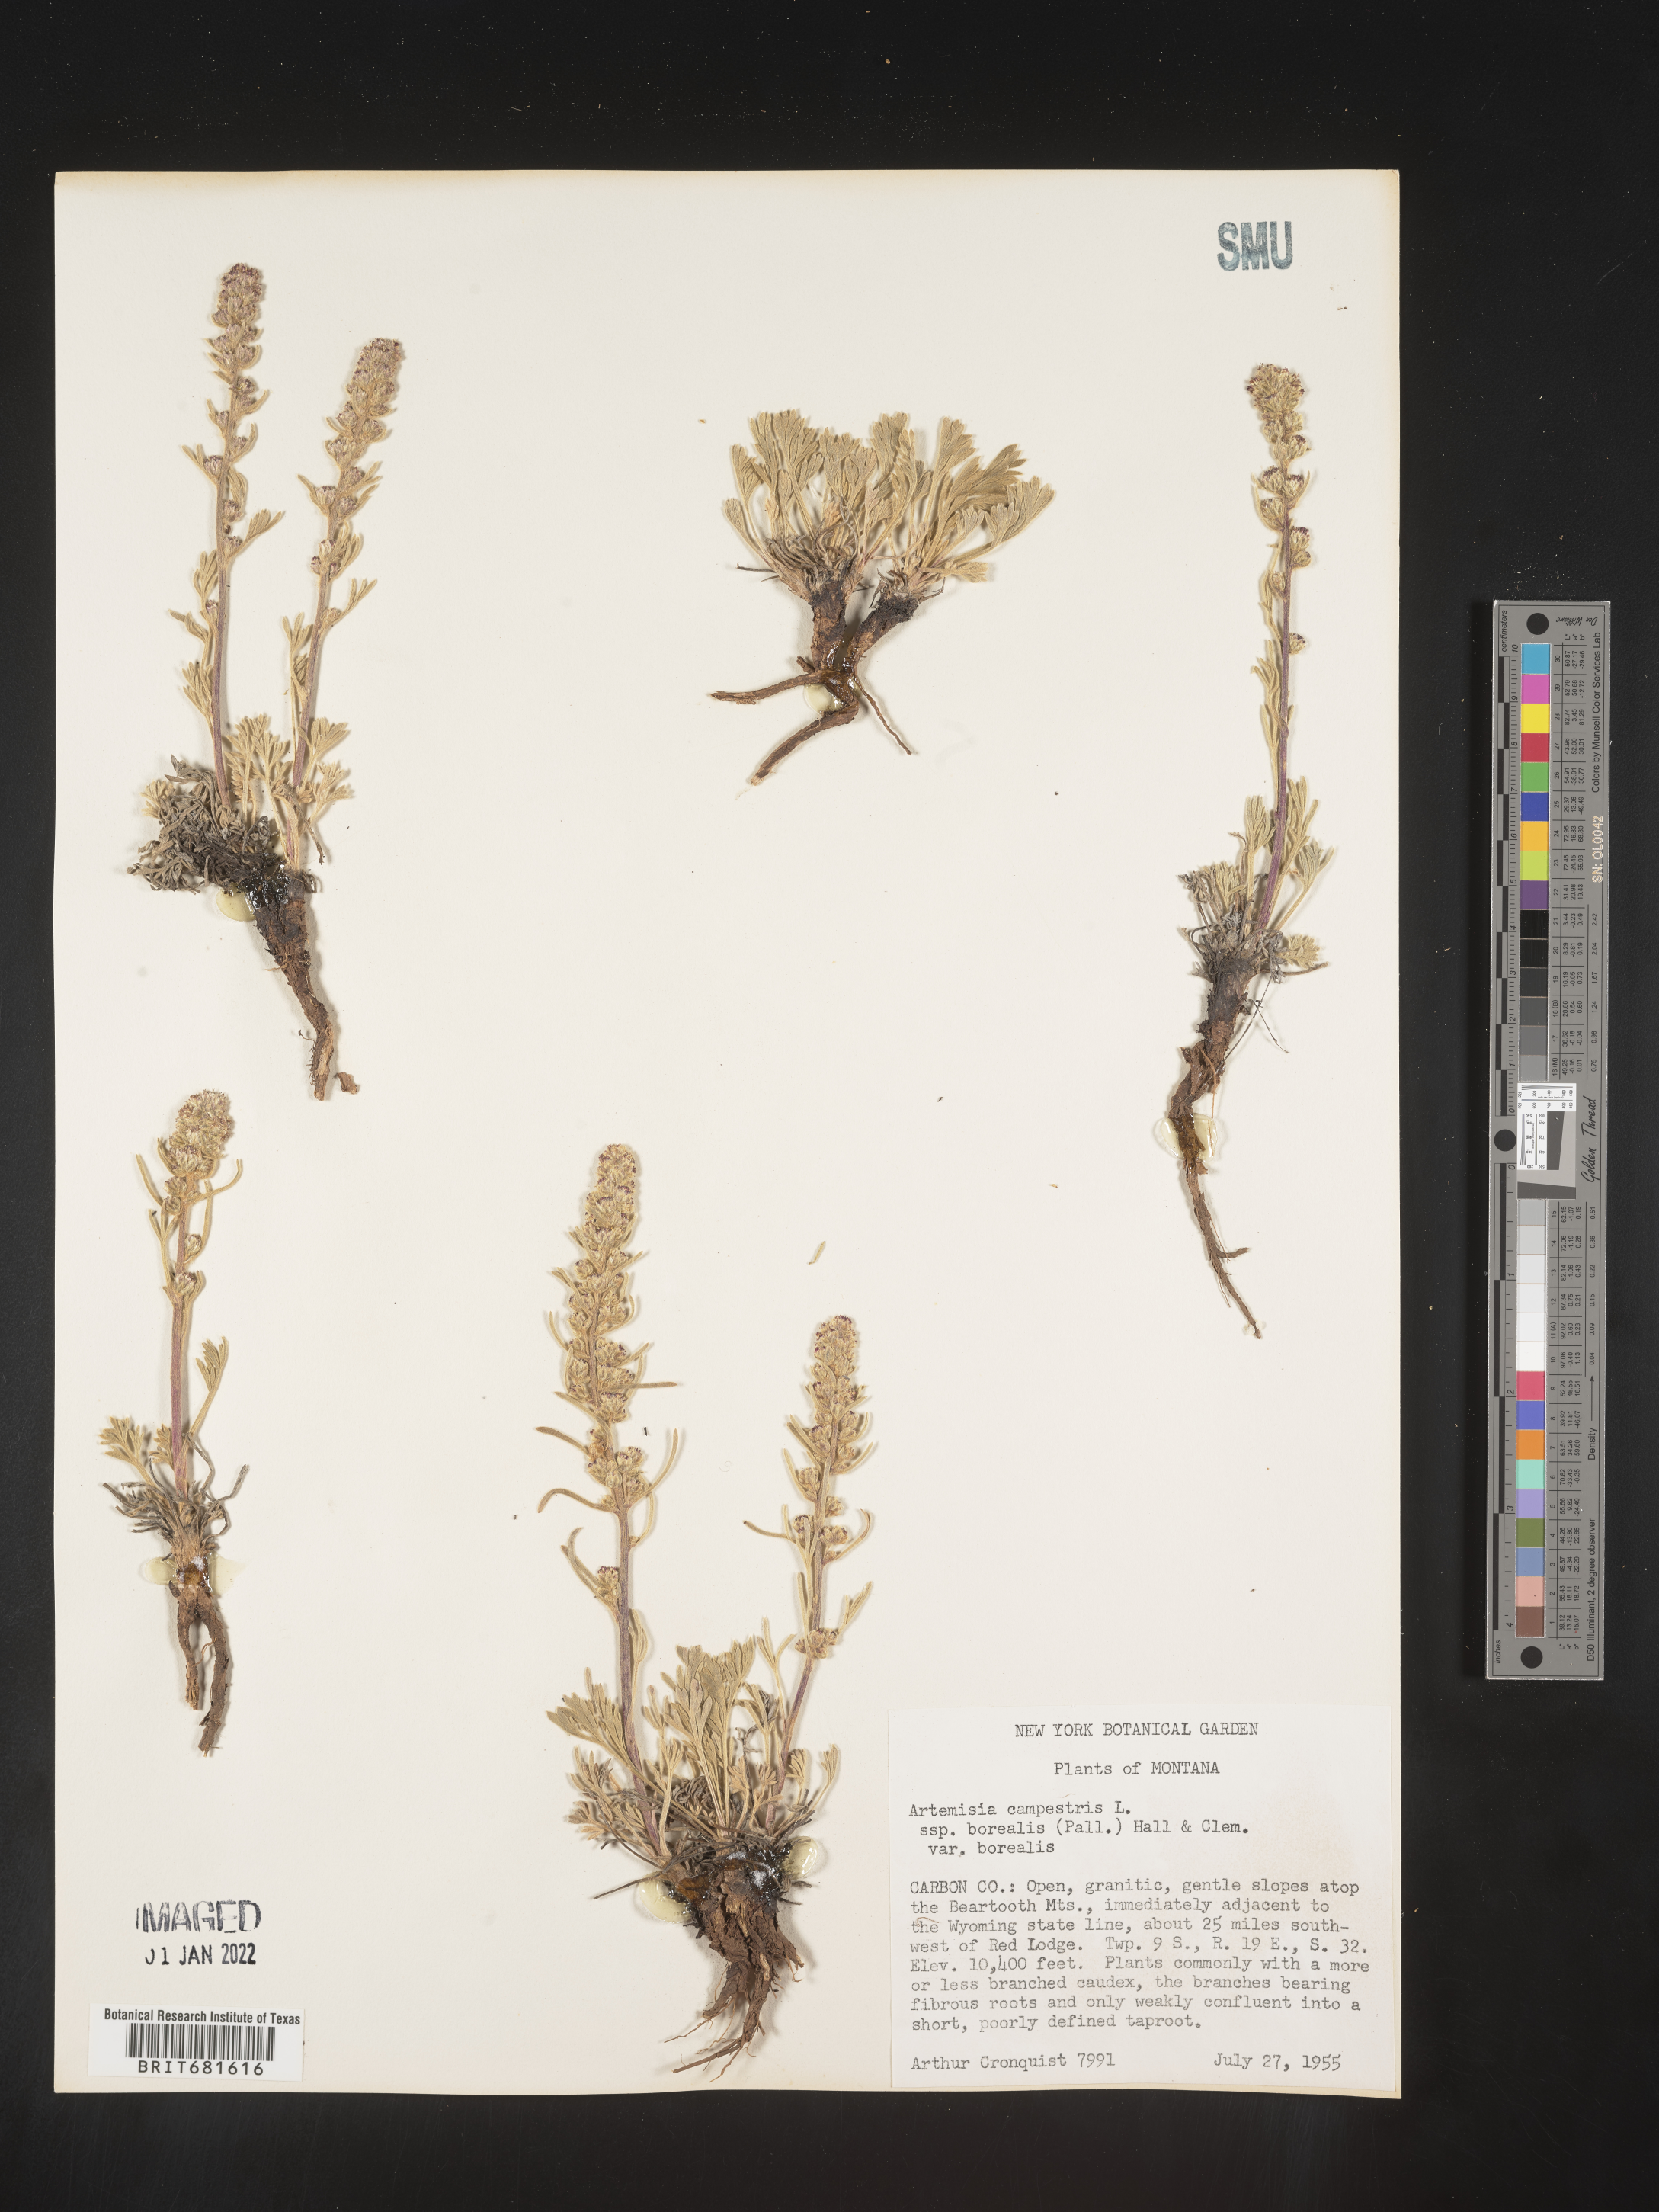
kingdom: Plantae
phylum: Tracheophyta
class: Magnoliopsida
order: Asterales
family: Asteraceae
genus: Artemisia
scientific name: Artemisia campestris
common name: Field wormwood
